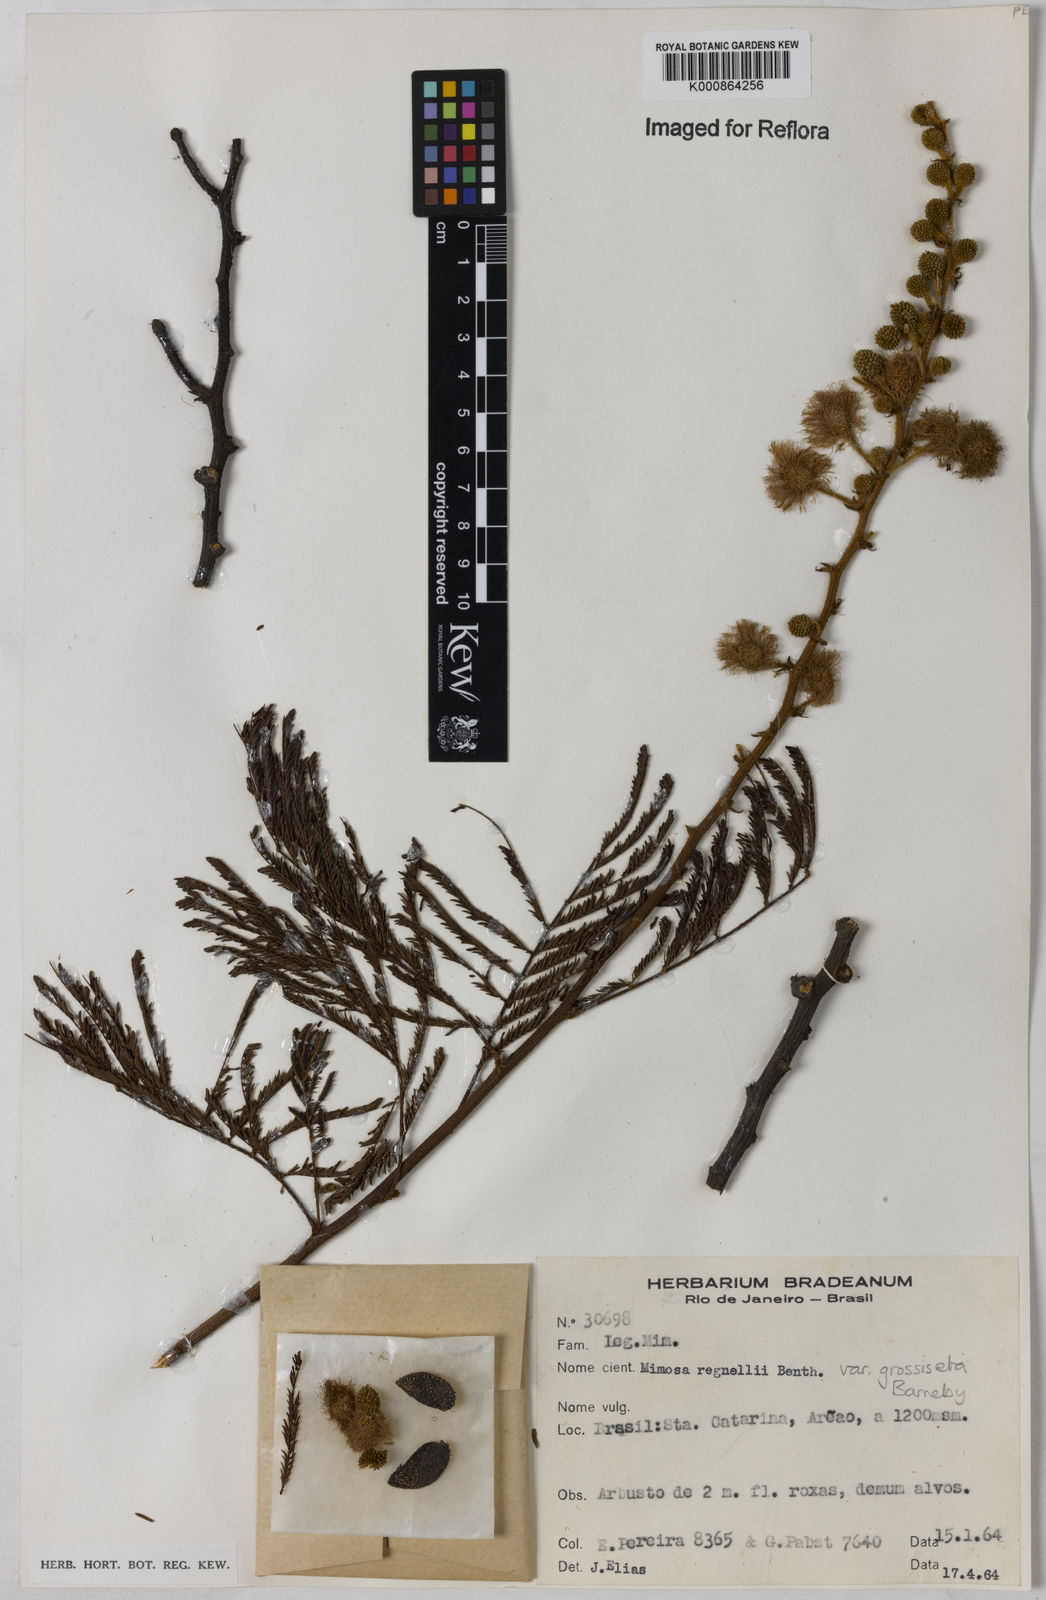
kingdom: Plantae
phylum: Tracheophyta
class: Magnoliopsida
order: Fabales
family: Fabaceae
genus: Mimosa
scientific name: Mimosa regnellii
